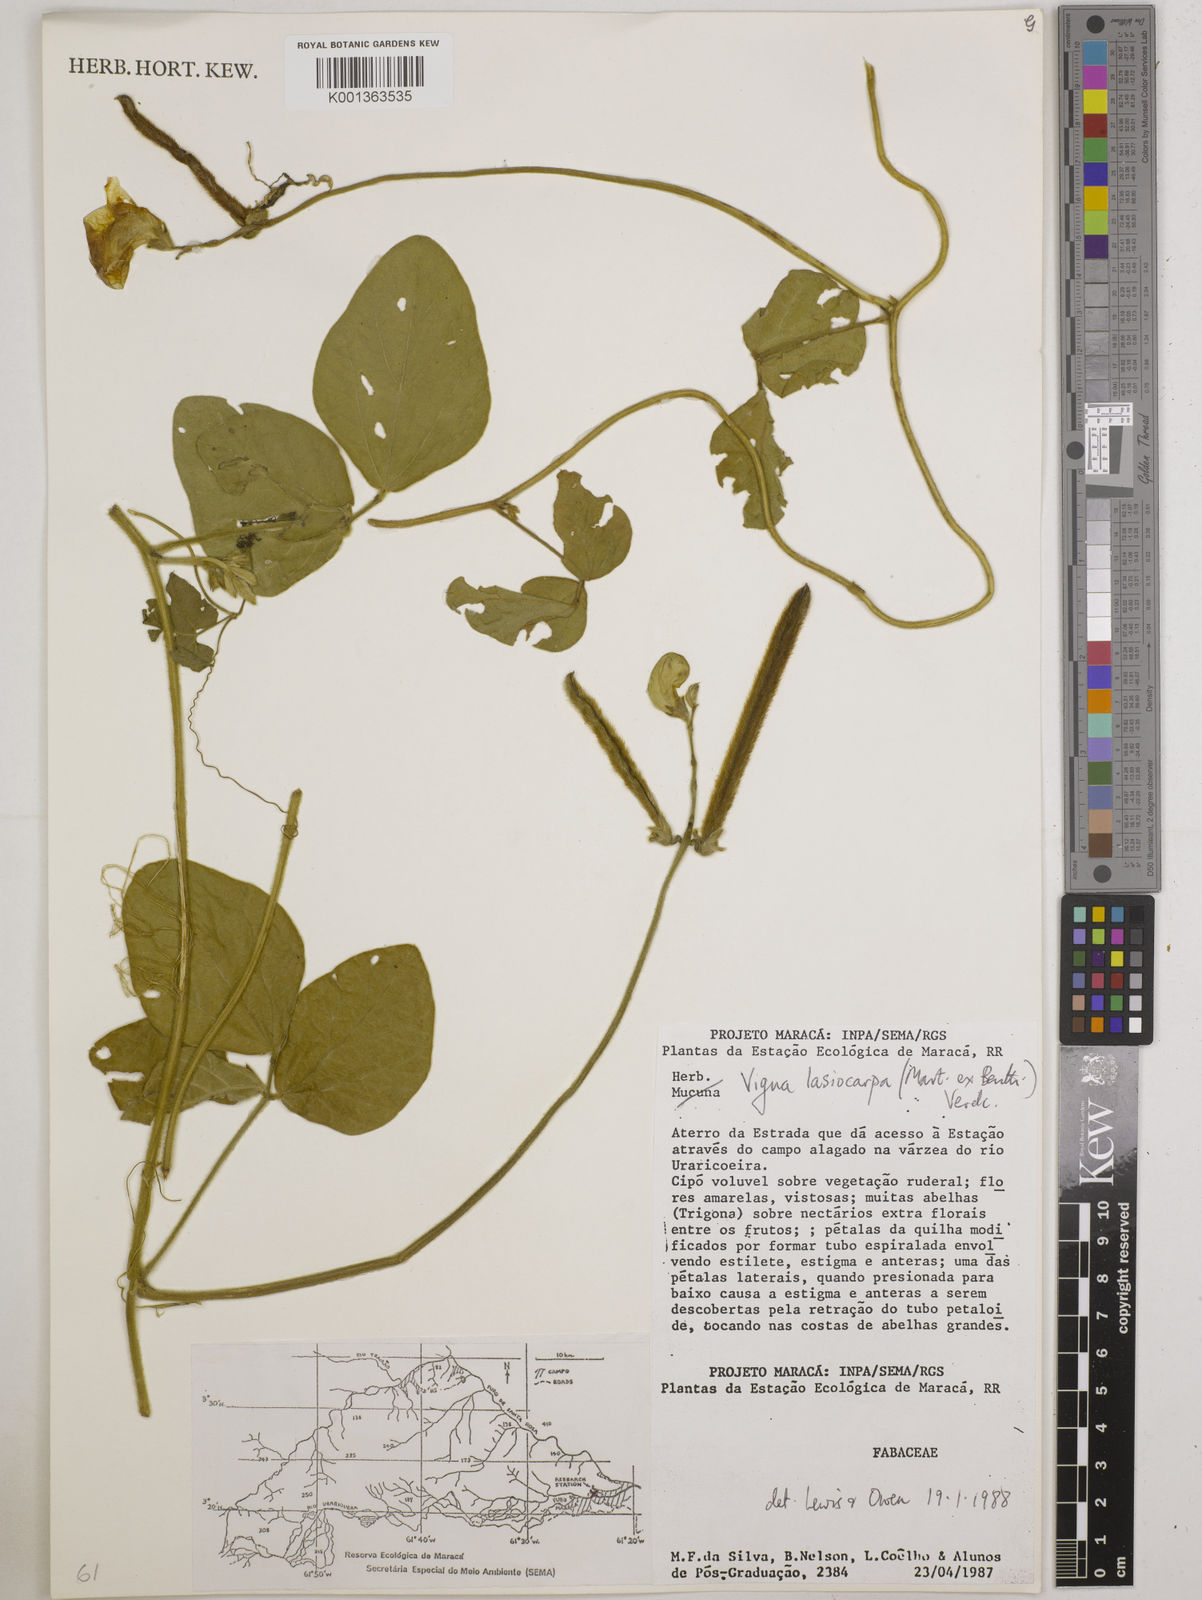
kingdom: Plantae
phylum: Tracheophyta
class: Magnoliopsida
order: Fabales
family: Fabaceae
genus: Vigna
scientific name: Vigna lasiocarpa
